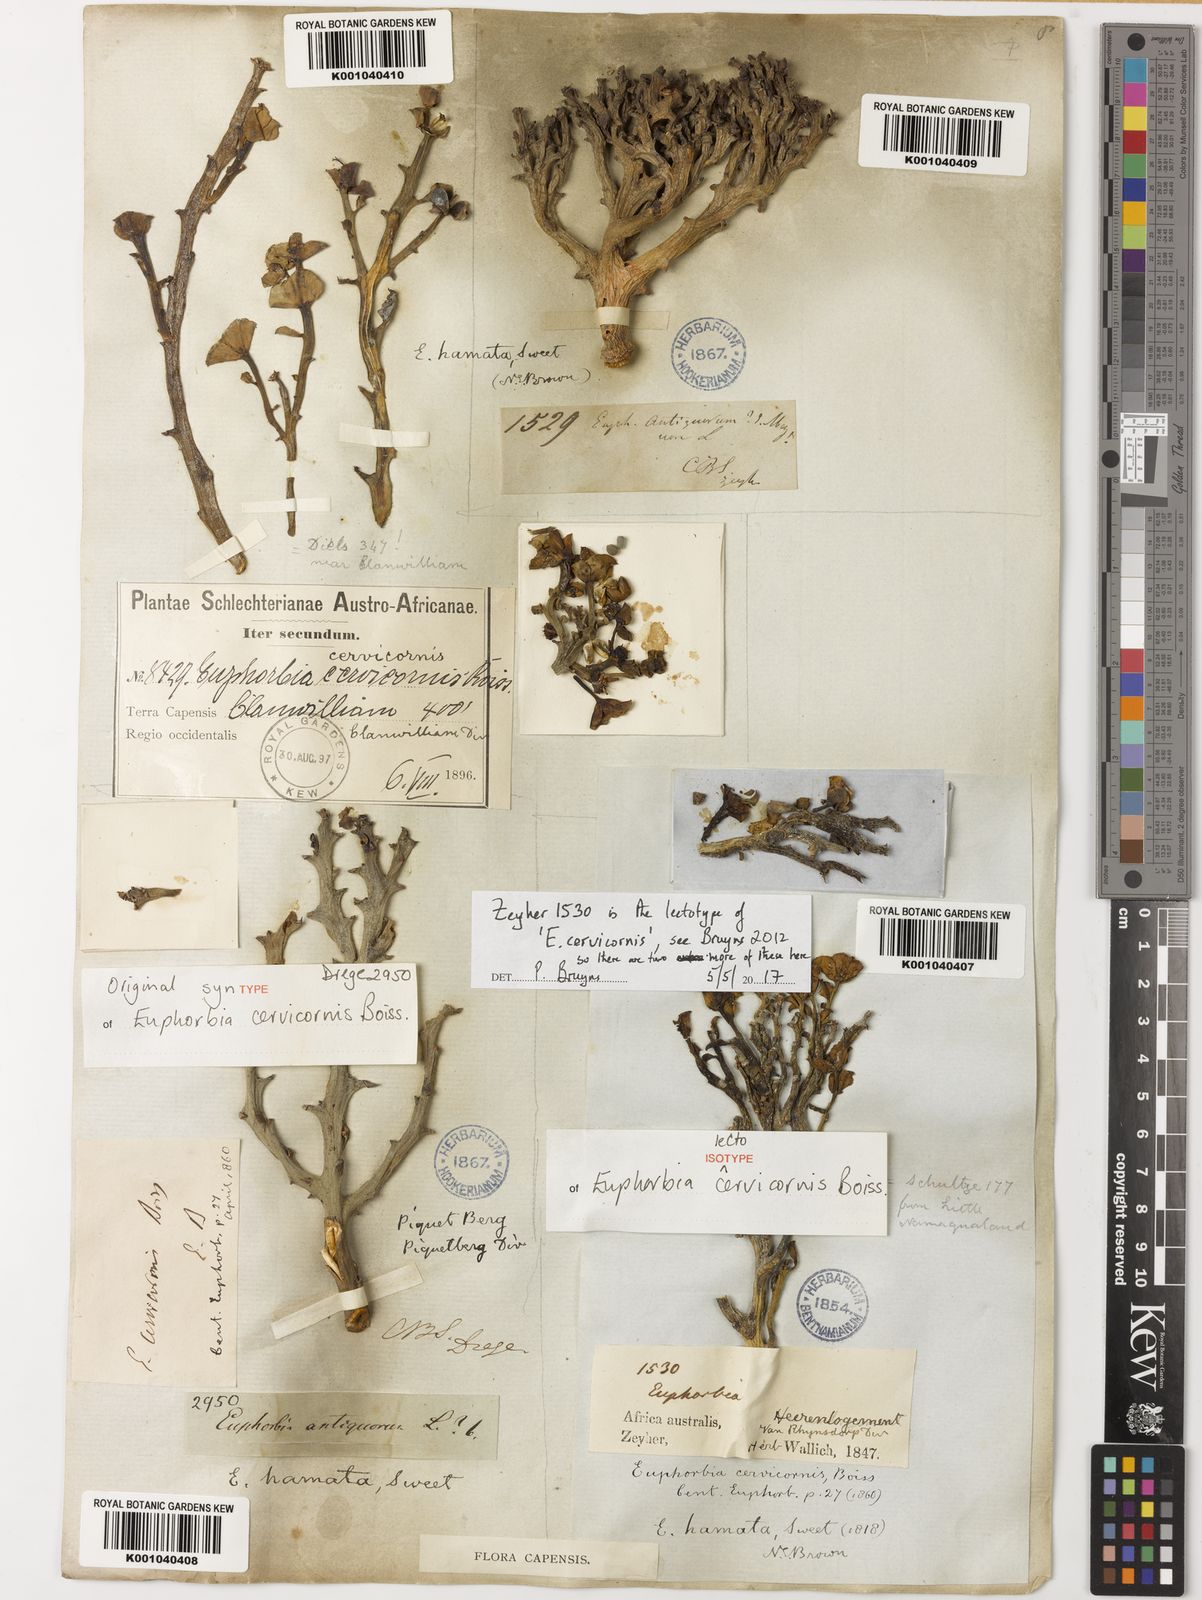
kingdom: Plantae
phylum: Tracheophyta
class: Magnoliopsida
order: Malpighiales
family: Euphorbiaceae
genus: Euphorbia
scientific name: Euphorbia hamata
